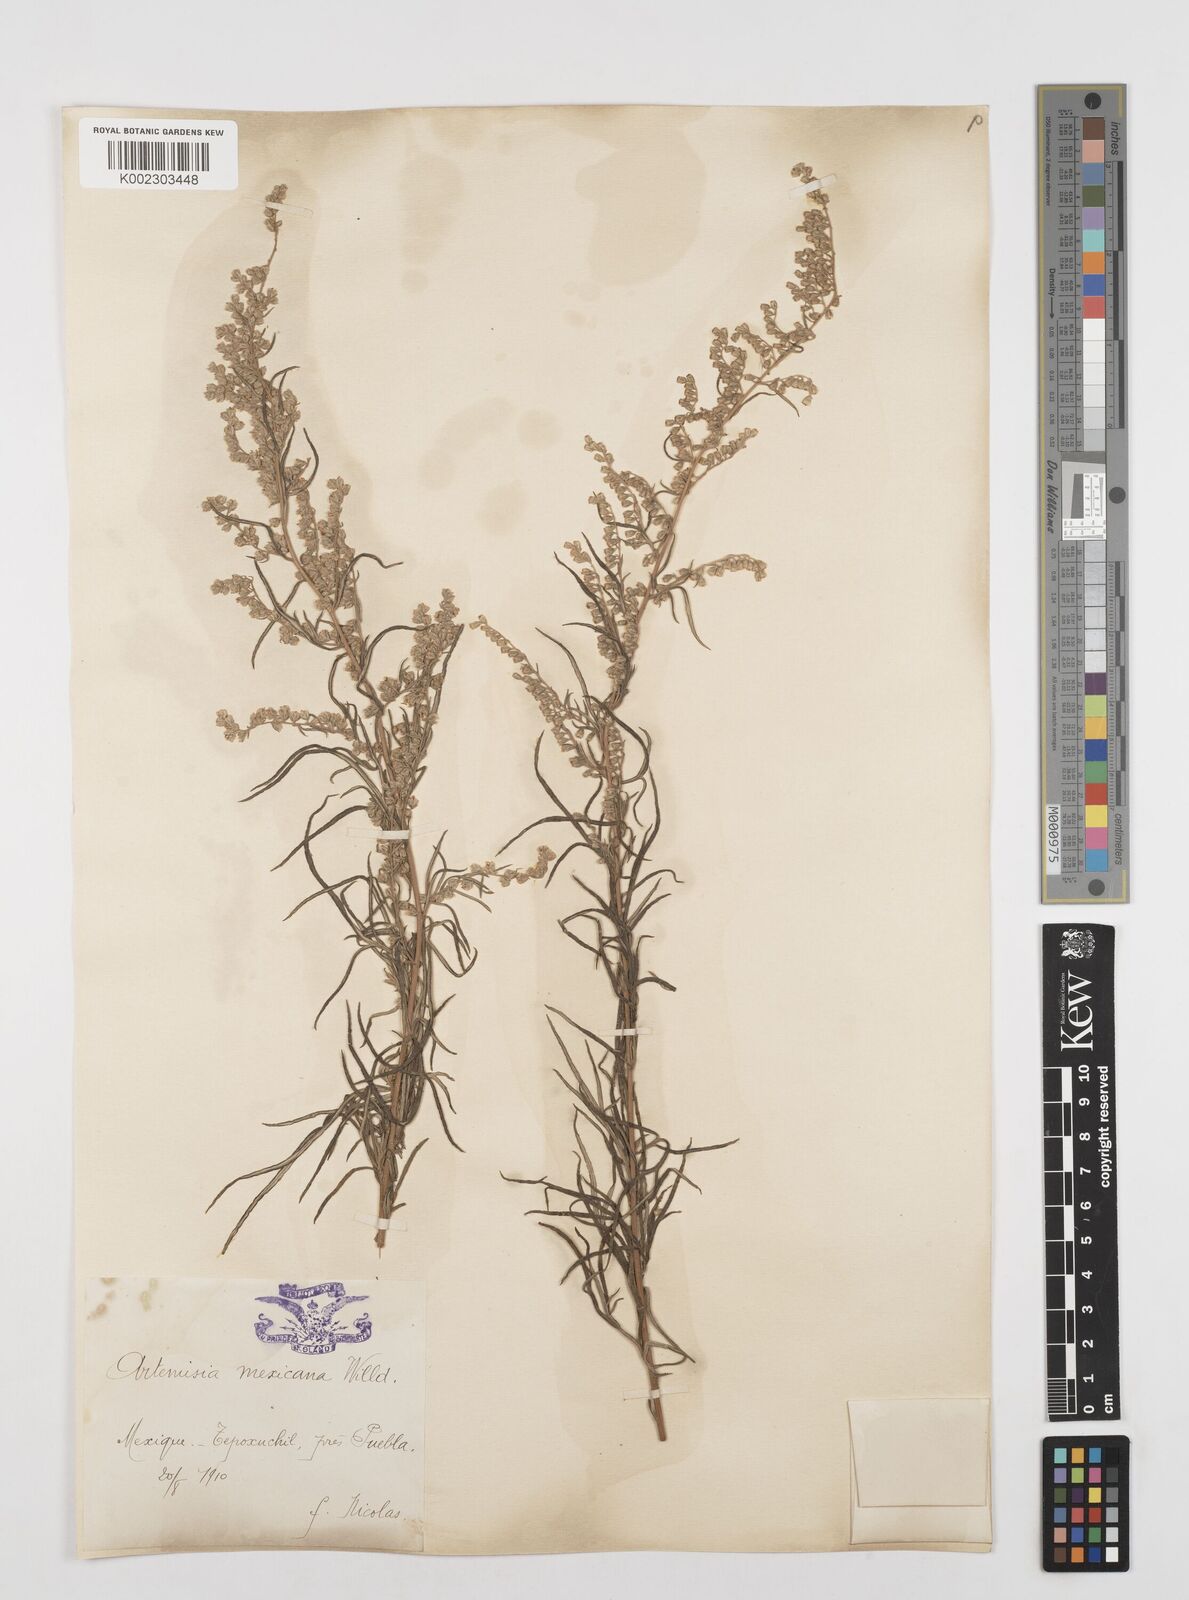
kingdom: Plantae
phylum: Tracheophyta
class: Magnoliopsida
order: Asterales
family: Asteraceae
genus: Artemisia
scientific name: Artemisia ludoviciana
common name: Western mugwort
